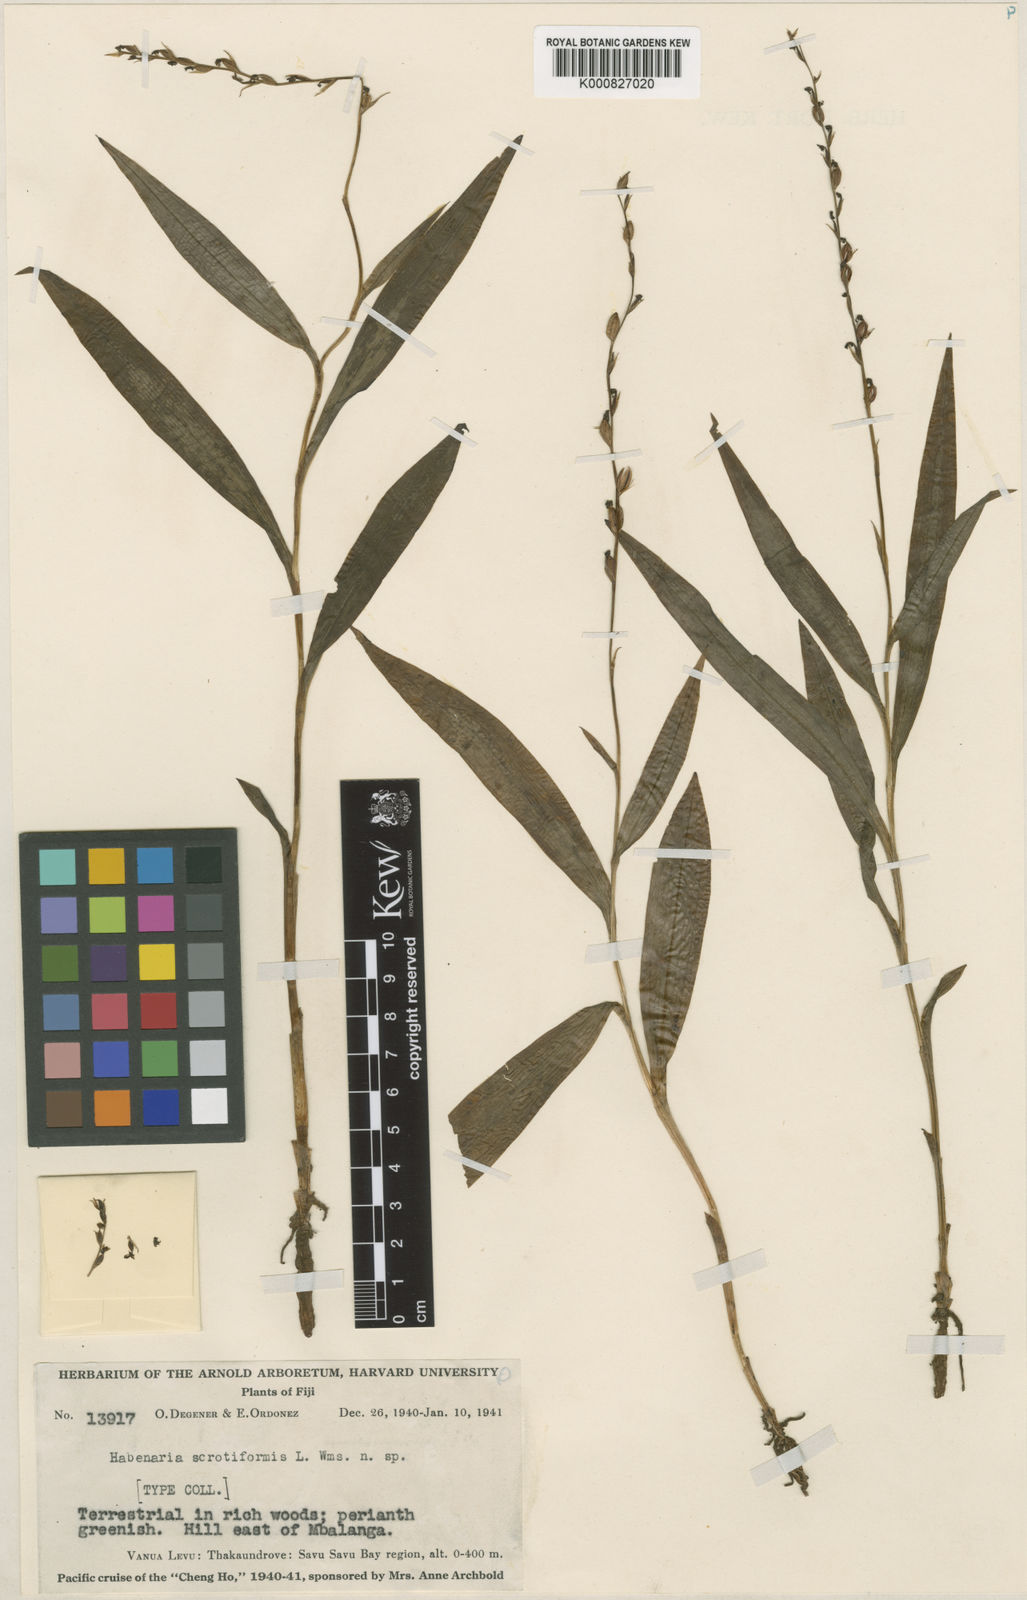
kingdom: Plantae
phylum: Tracheophyta
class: Liliopsida
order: Asparagales
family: Orchidaceae
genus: Peristylus
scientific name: Peristylus novoebudarum
